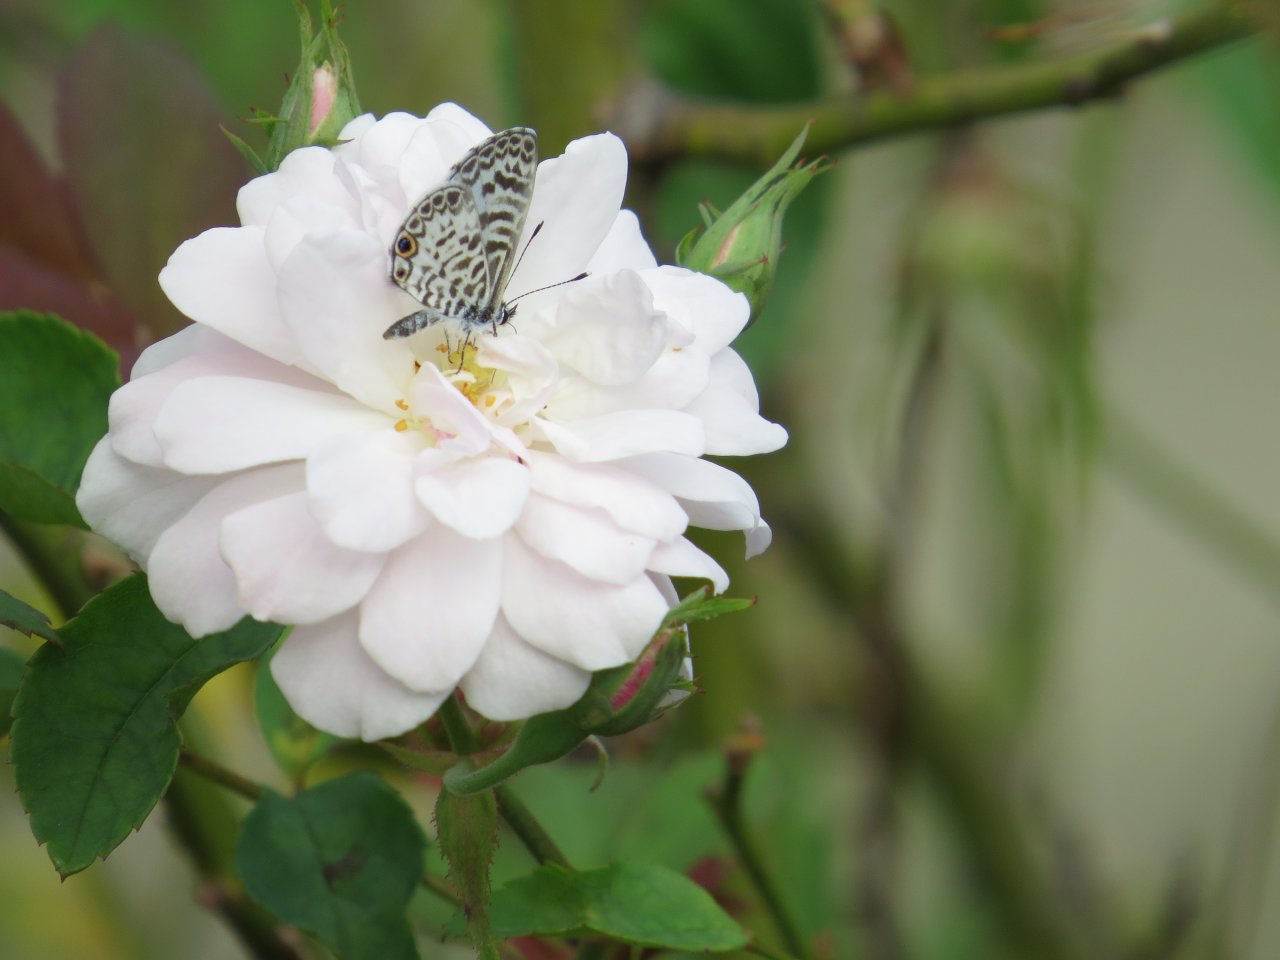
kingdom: Animalia
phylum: Arthropoda
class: Insecta
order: Lepidoptera
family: Lycaenidae
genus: Leptotes
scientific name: Leptotes cassius
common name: Cassius Blue
